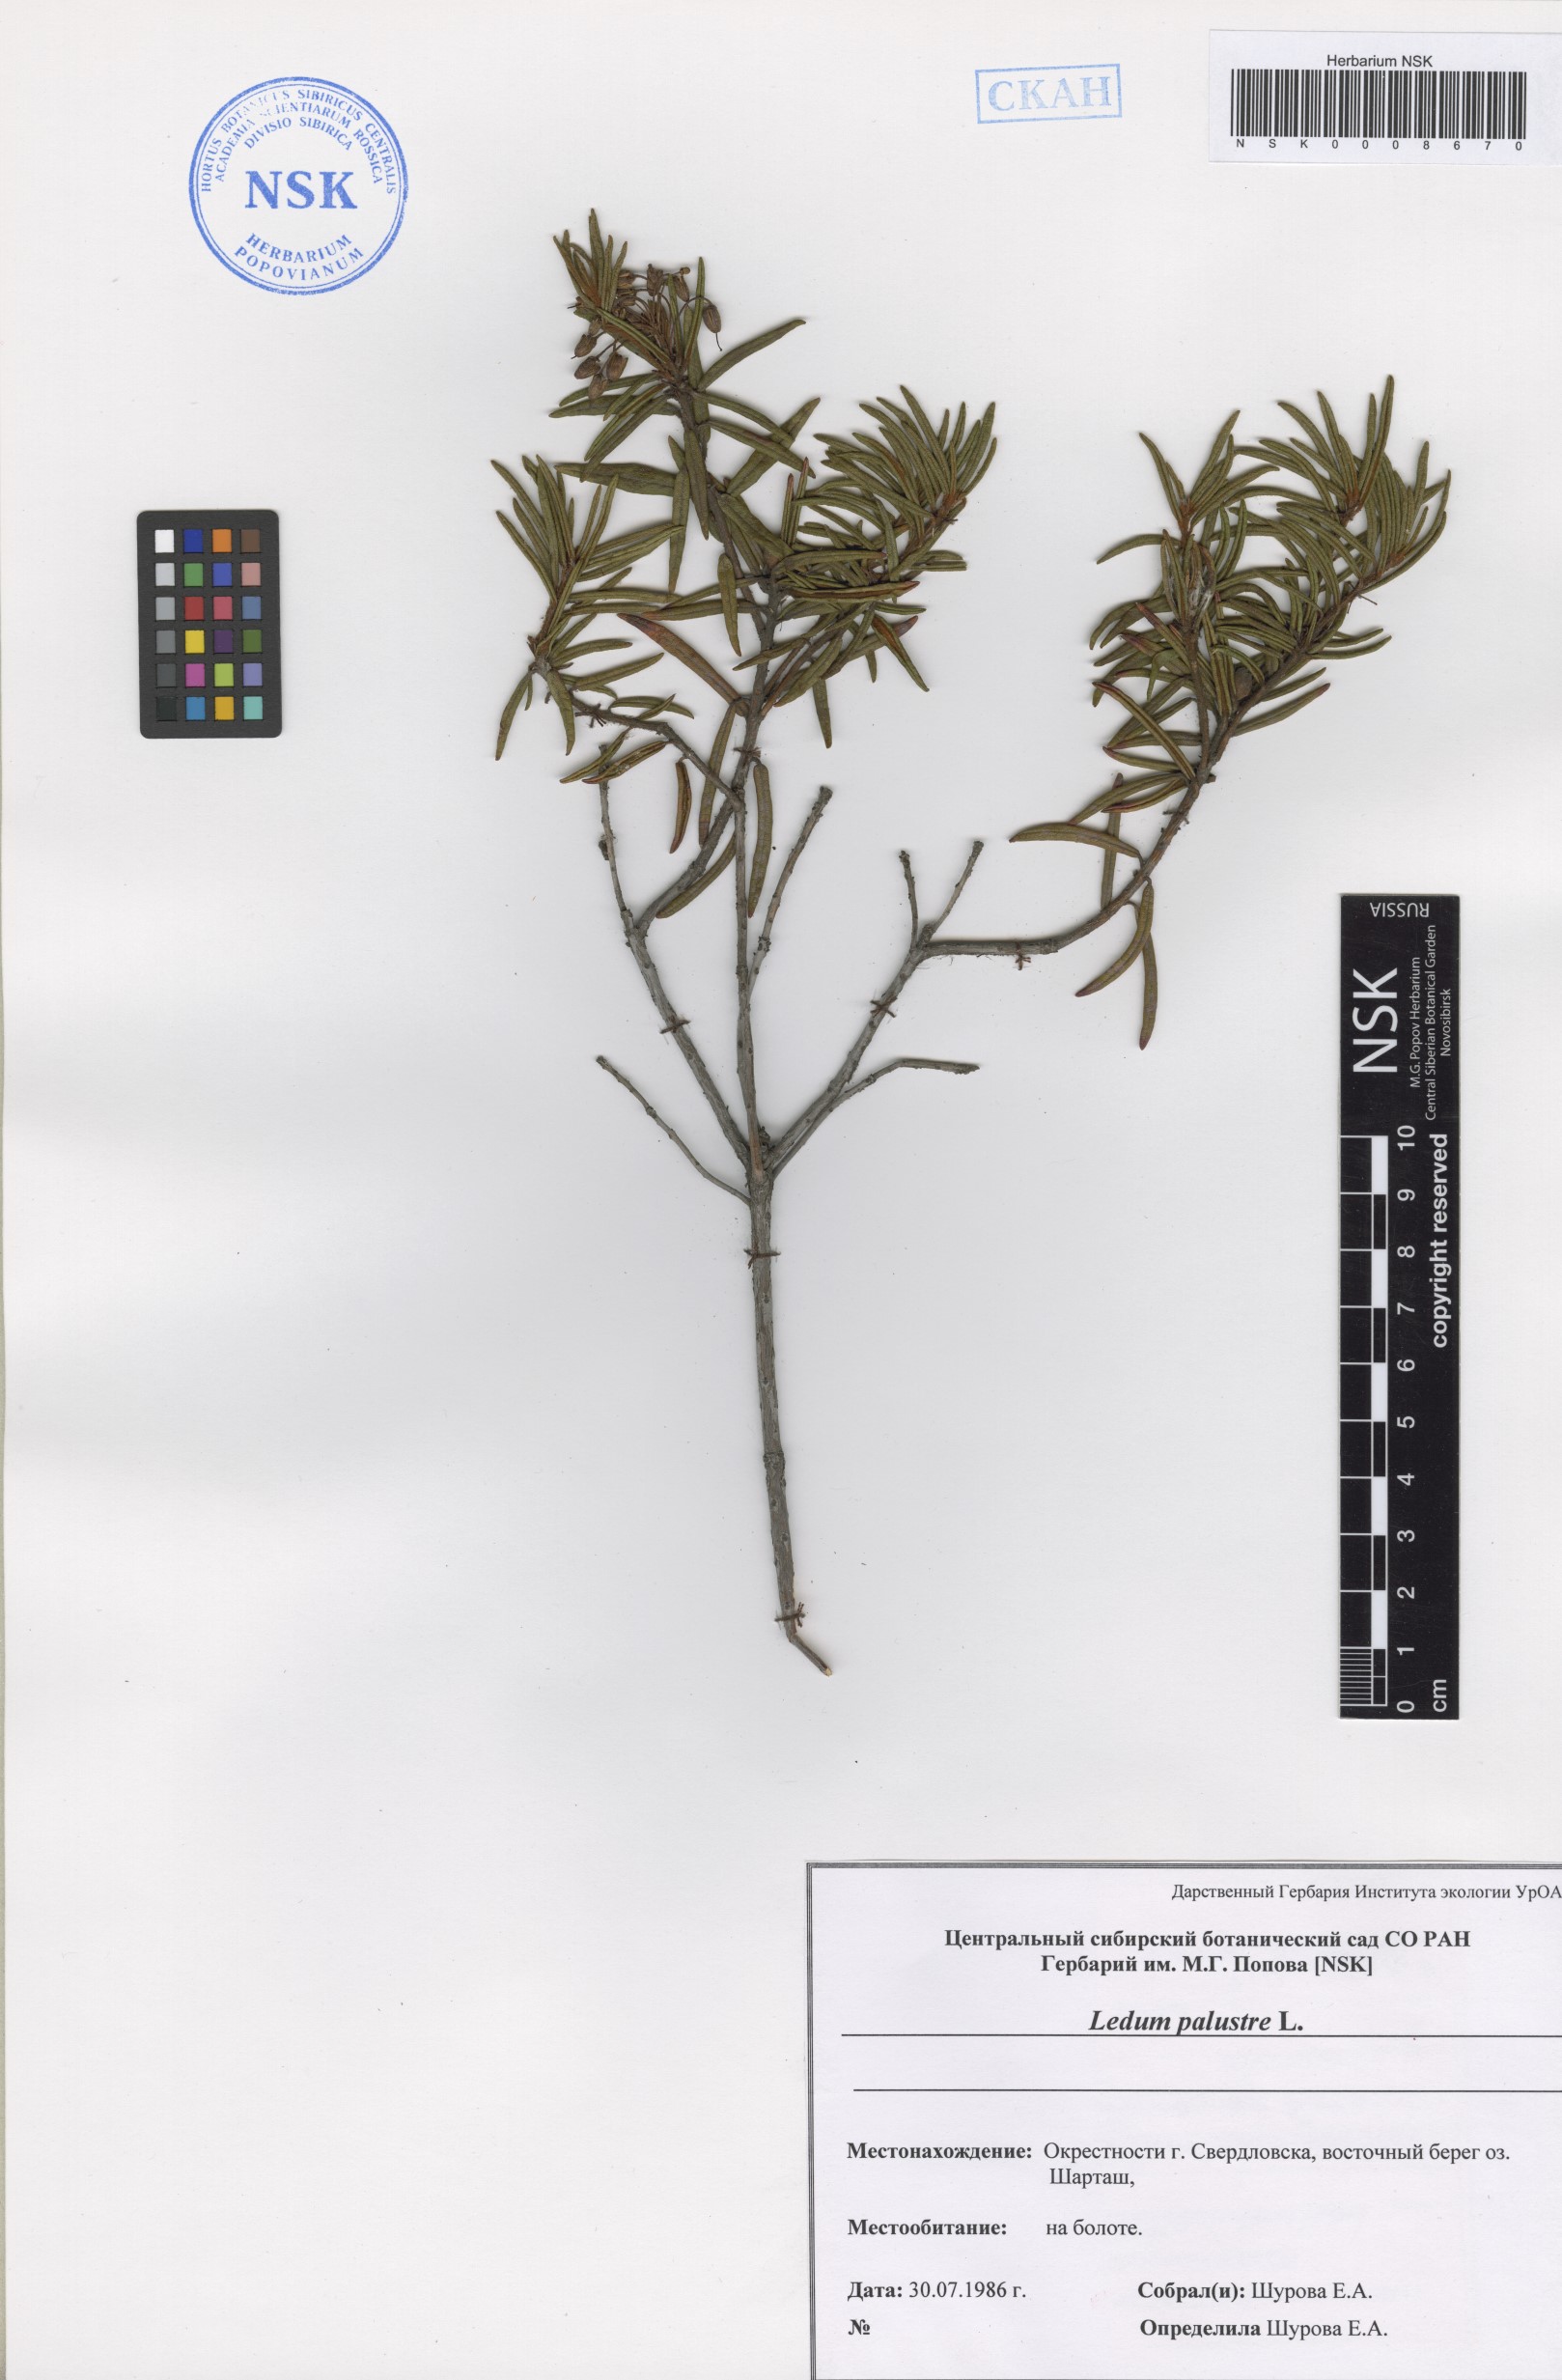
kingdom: Plantae
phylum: Tracheophyta
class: Magnoliopsida
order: Ericales
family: Ericaceae
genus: Rhododendron
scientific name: Rhododendron tomentosum
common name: Marsh labrador tea
